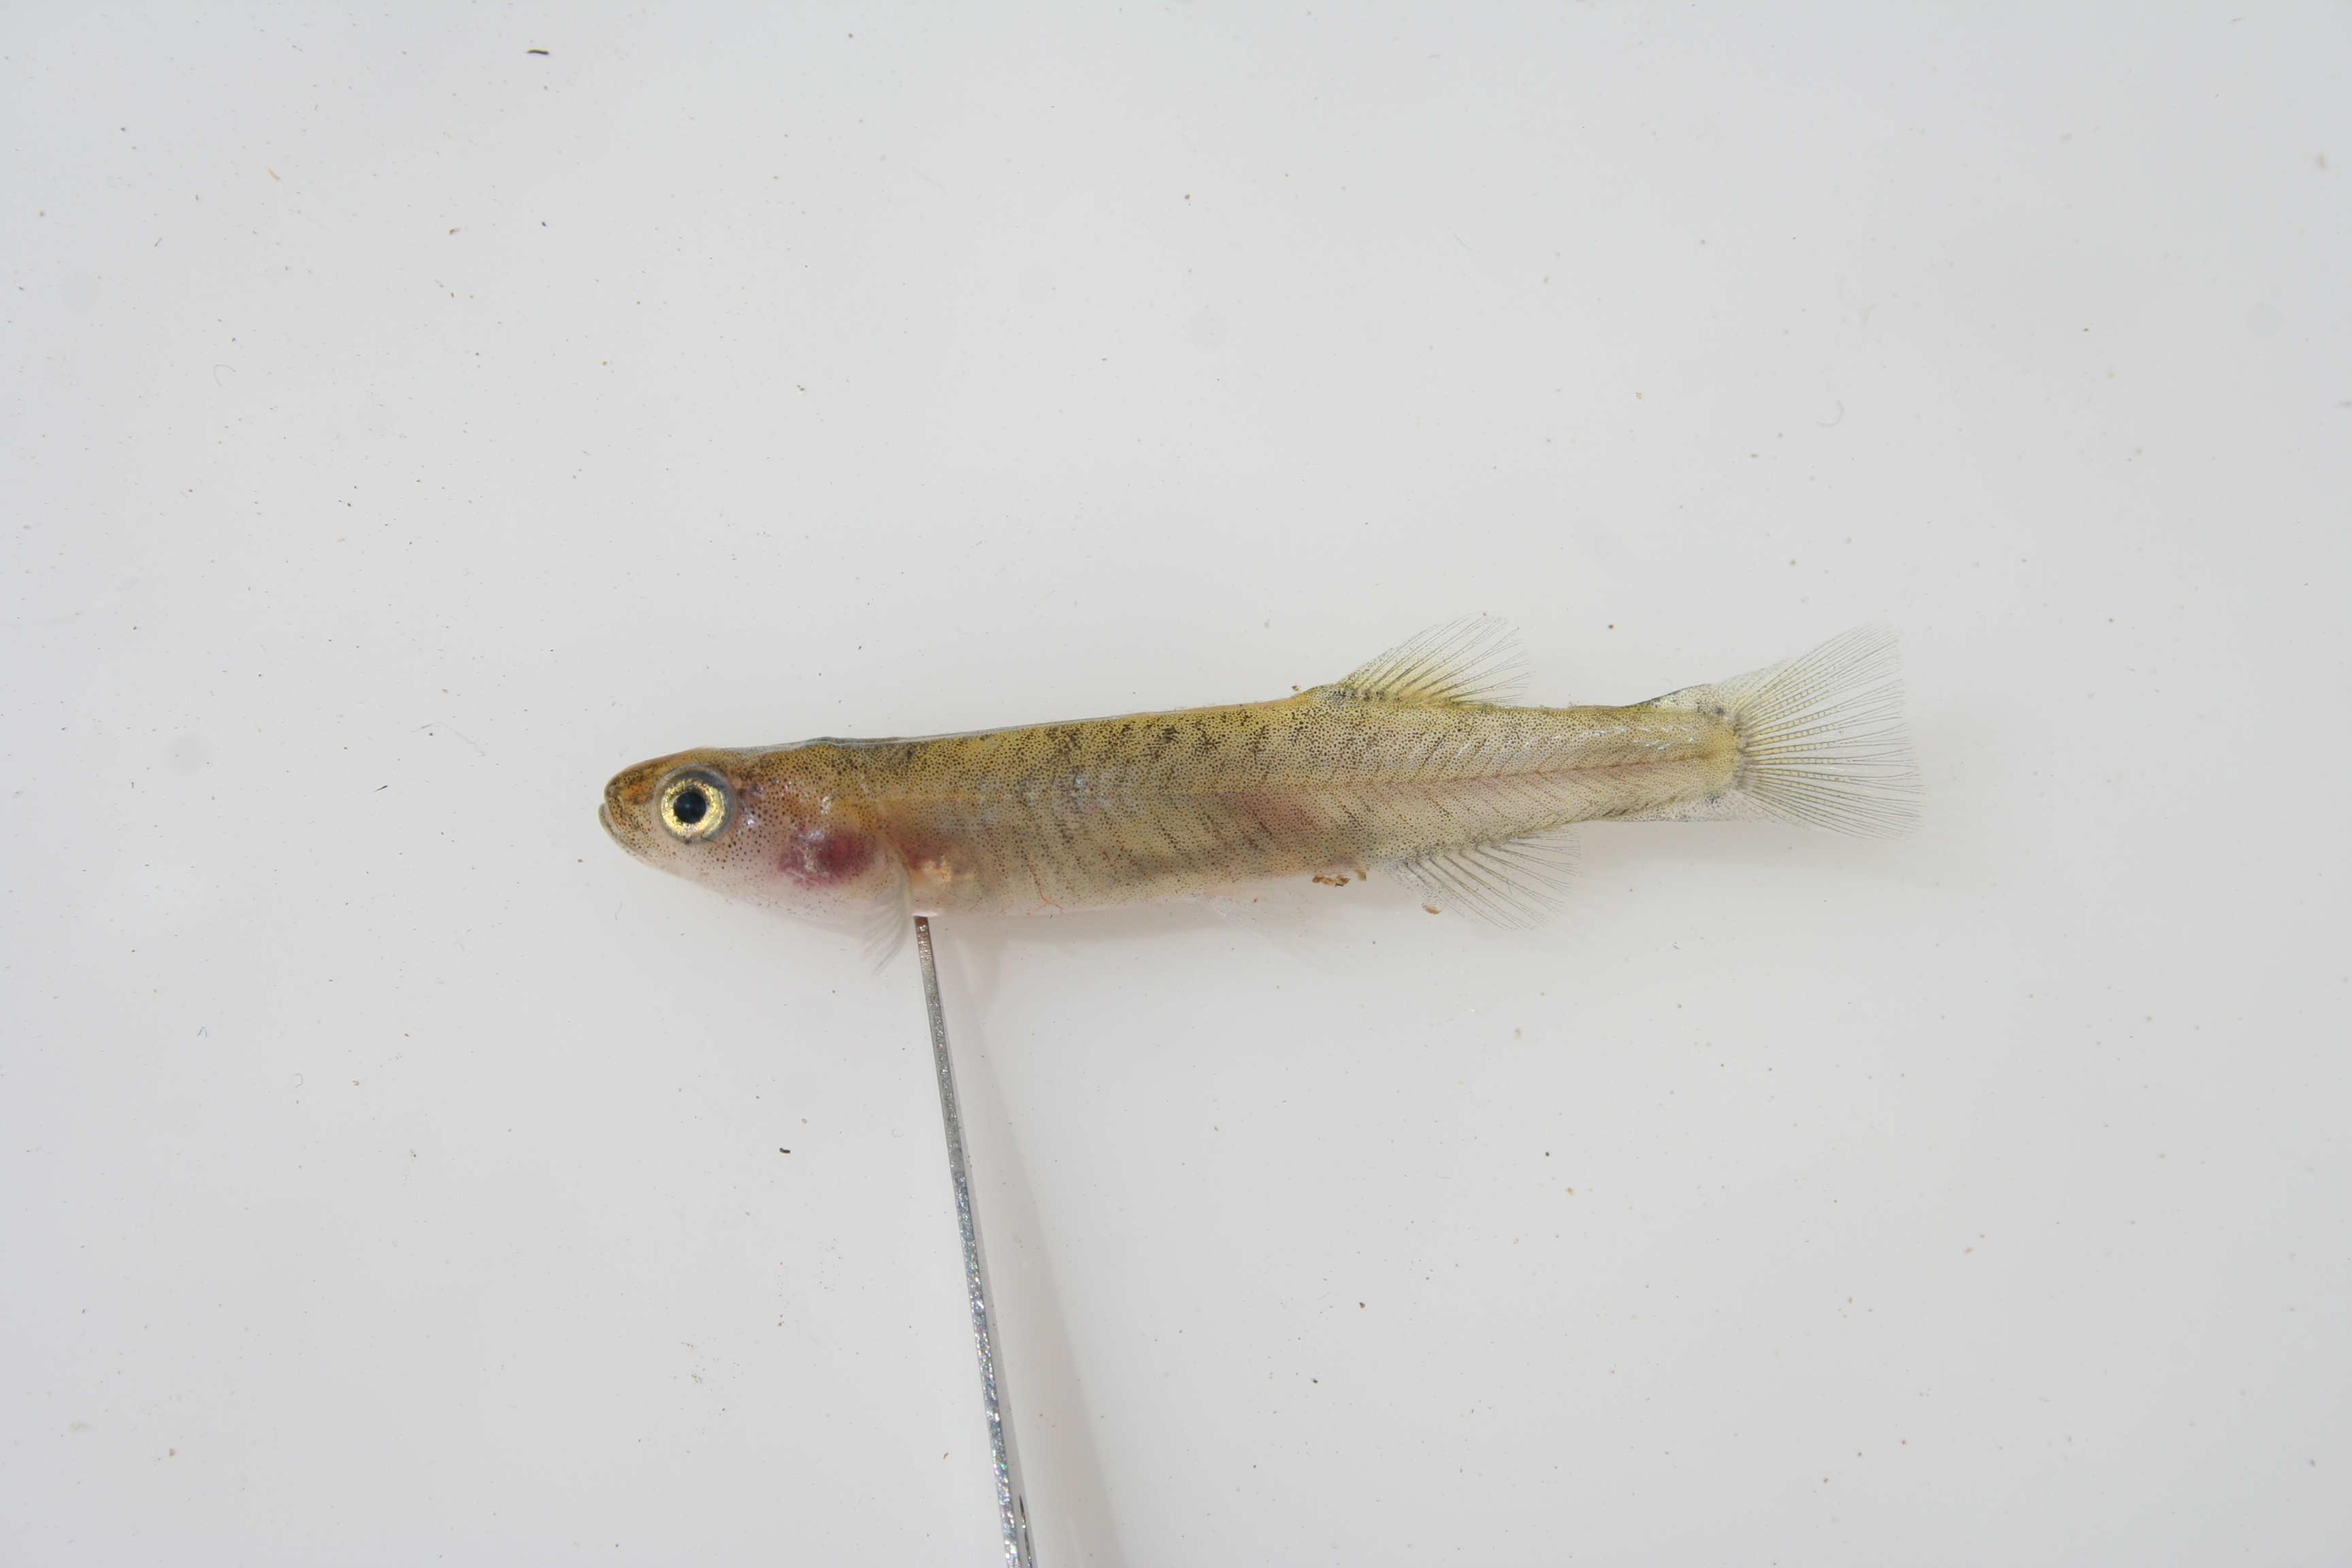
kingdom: Animalia
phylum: Chordata
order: Osmeriformes
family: Galaxiidae
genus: Galaxias
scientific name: Galaxias
